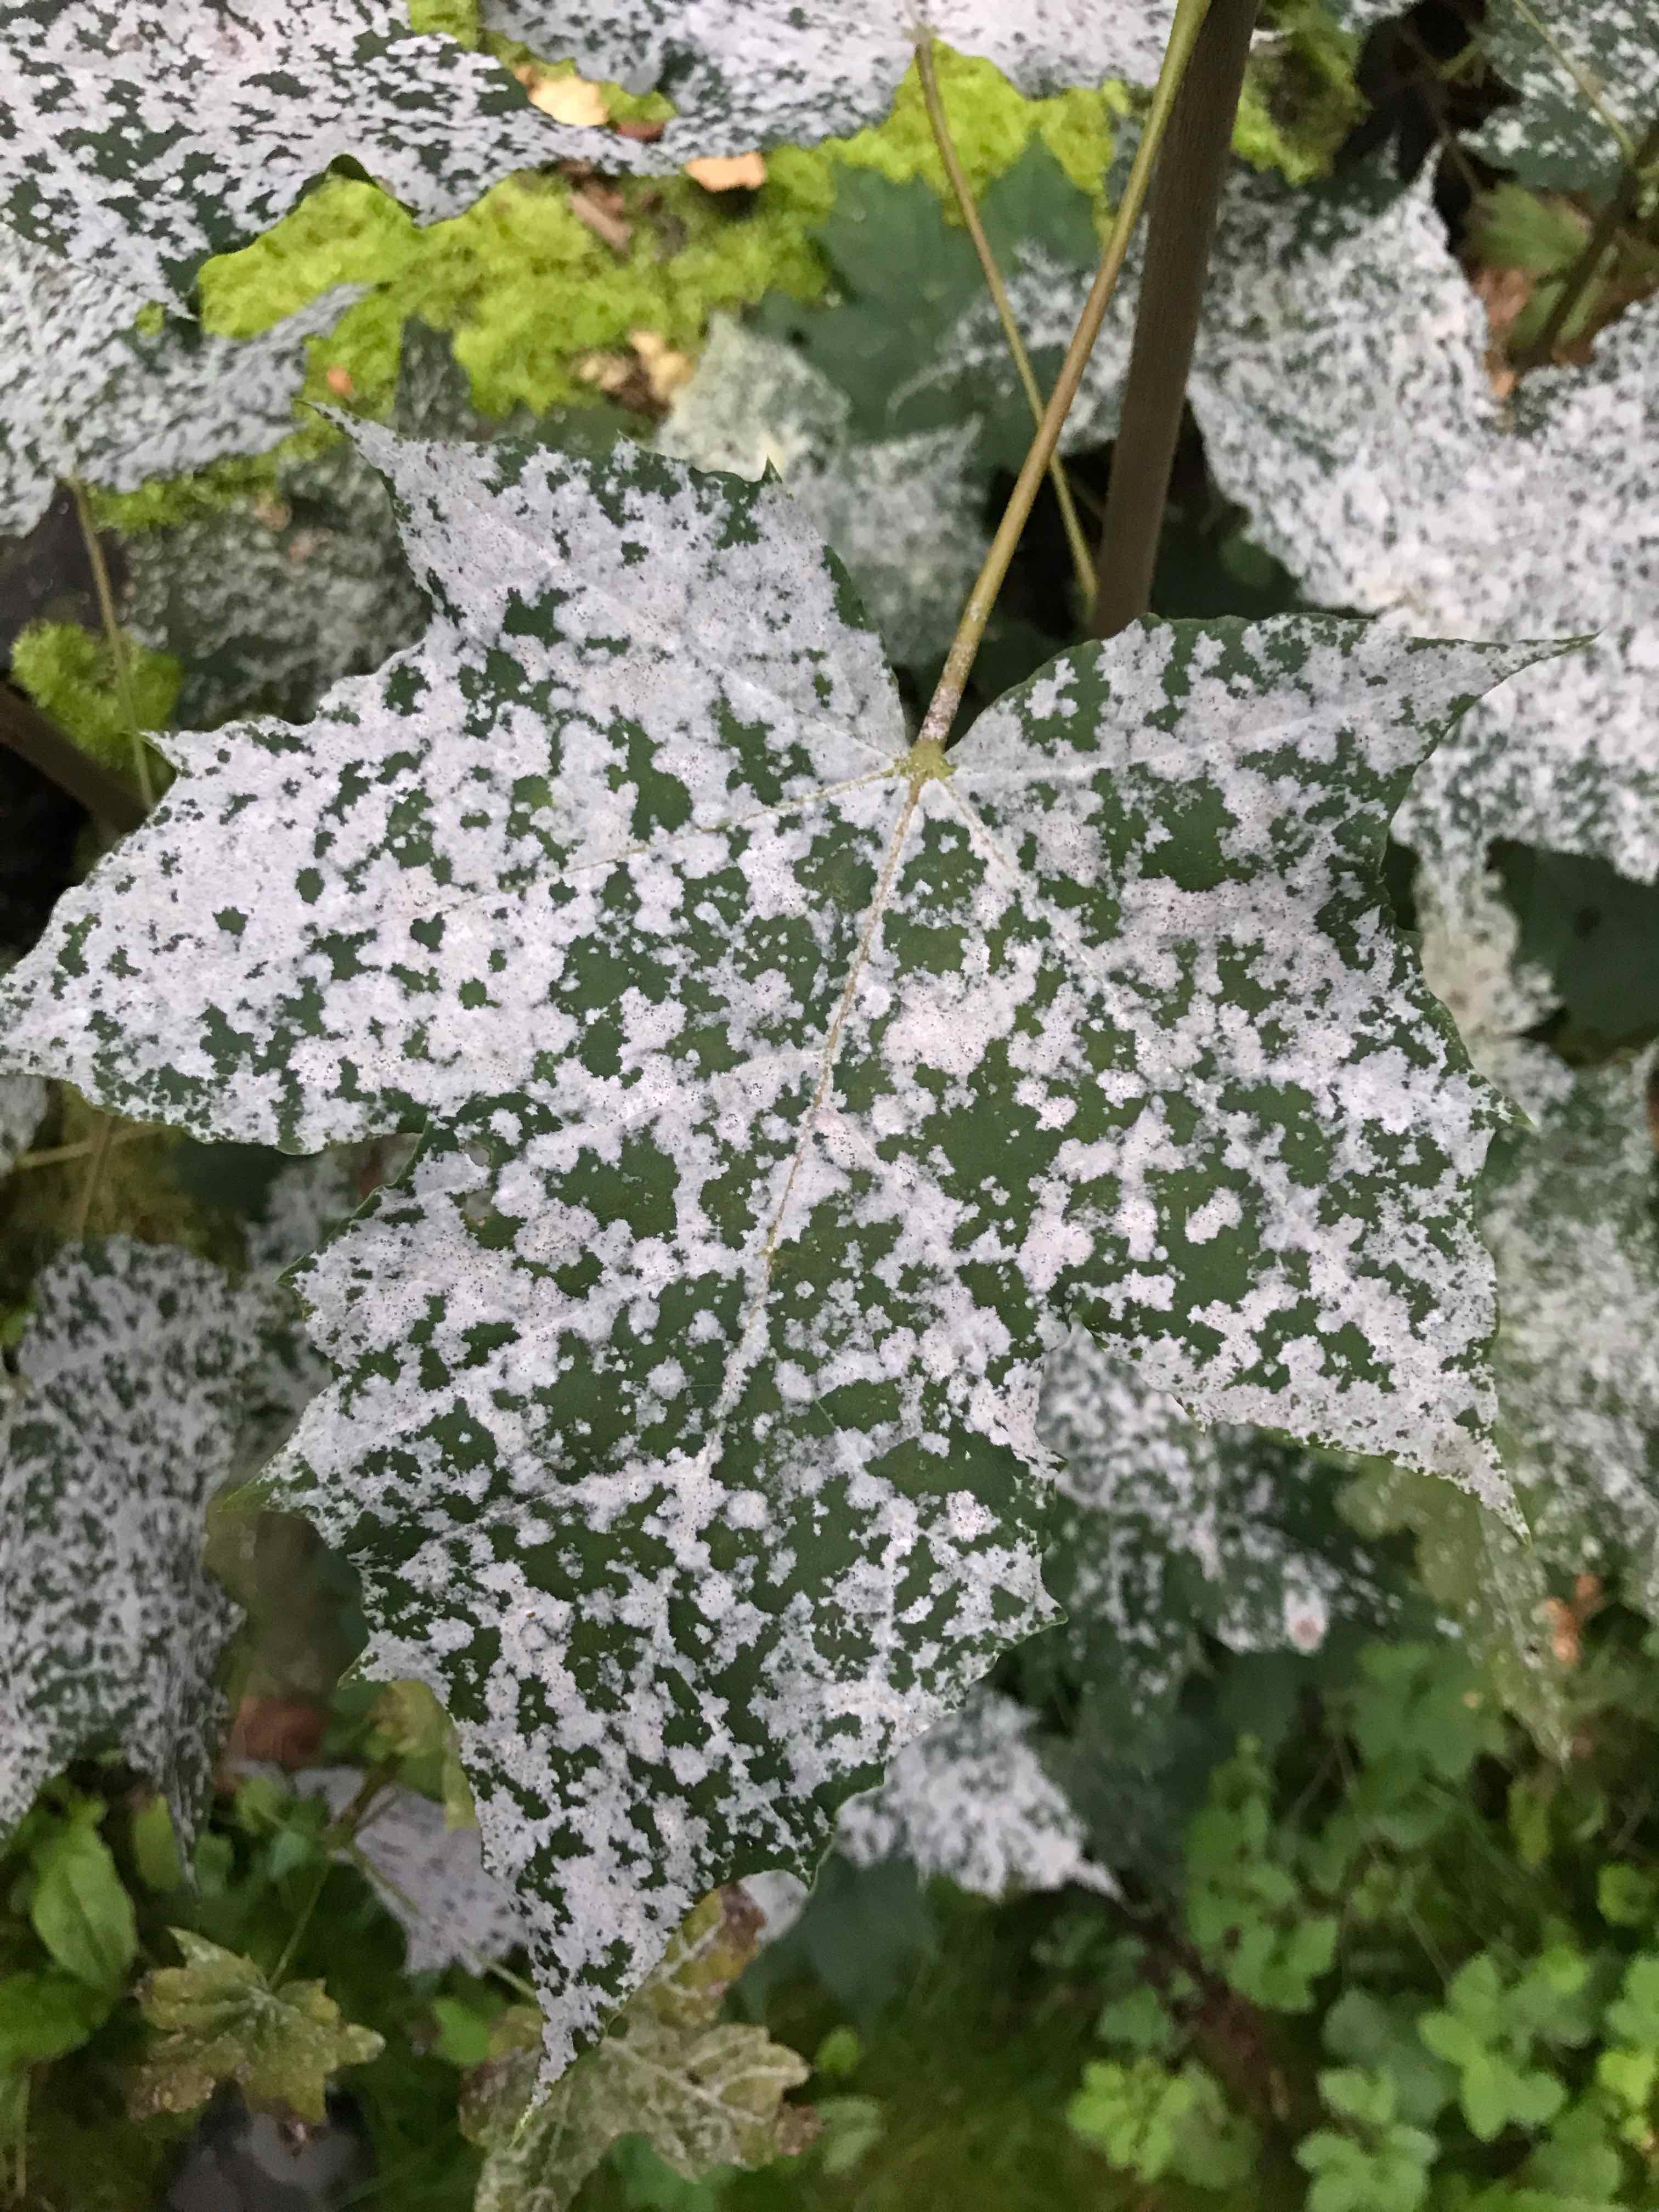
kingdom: Fungi
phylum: Ascomycota
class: Leotiomycetes
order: Helotiales
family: Erysiphaceae
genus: Sawadaea
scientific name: Sawadaea tulasnei
